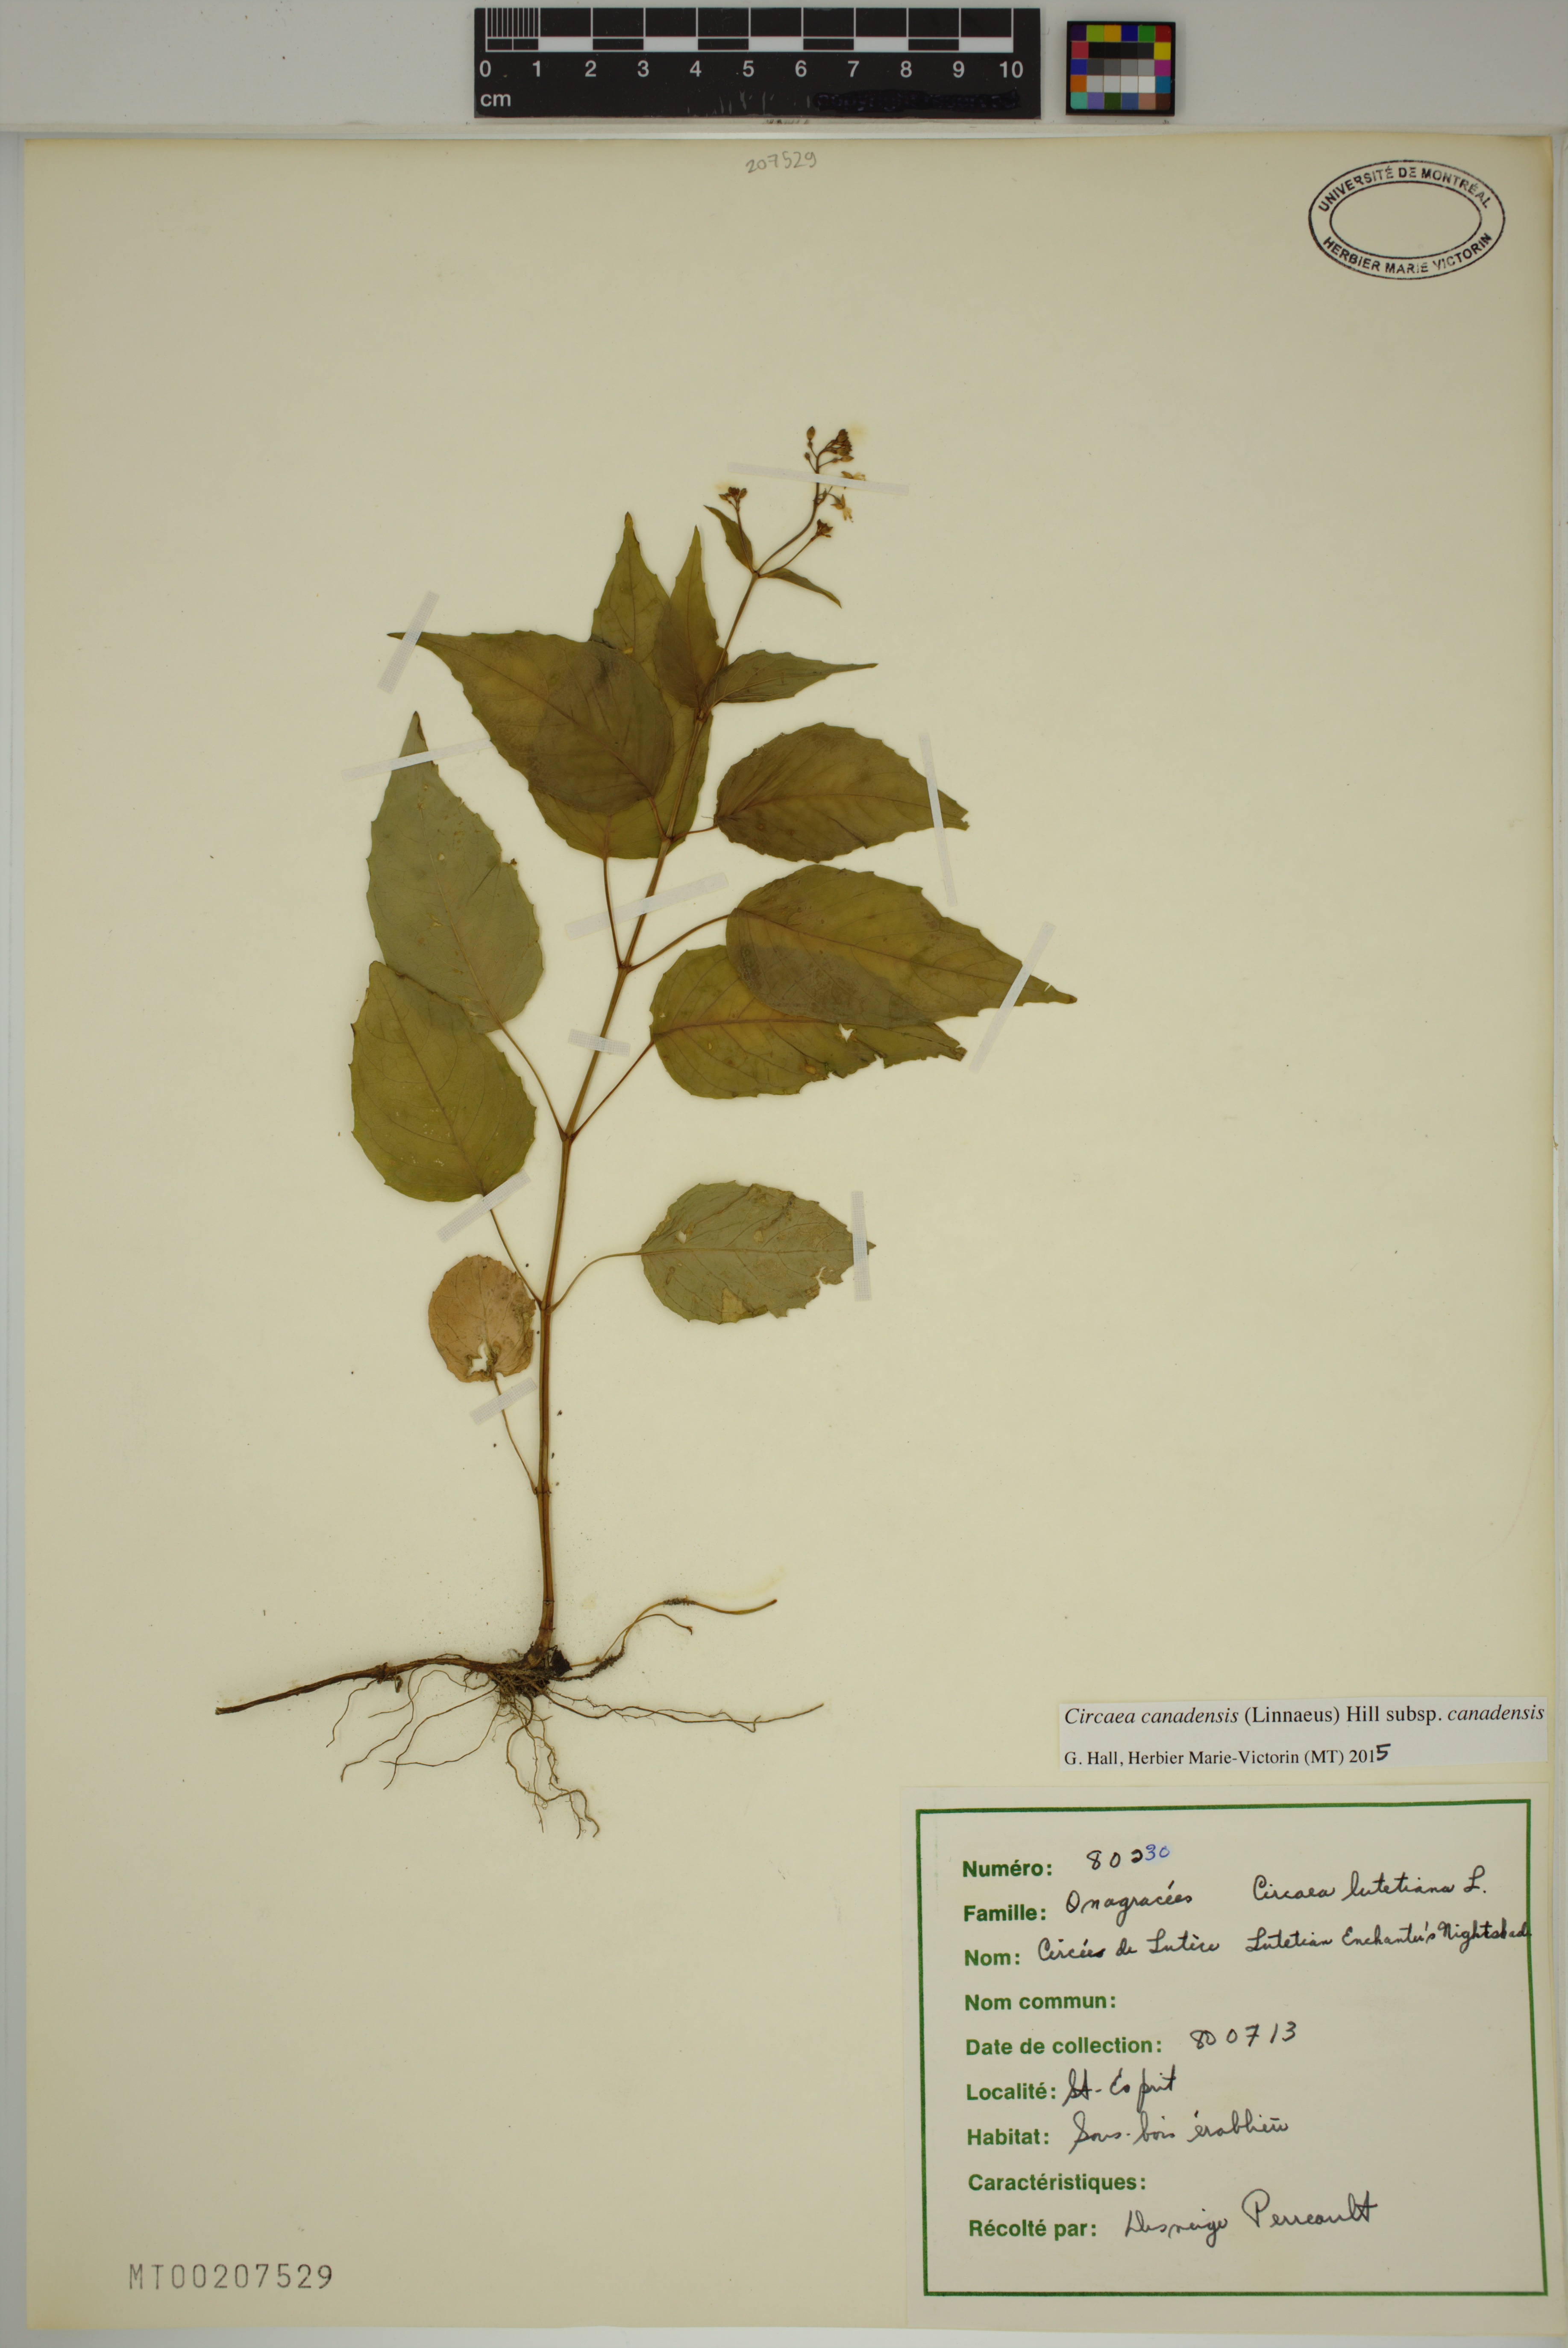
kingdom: Plantae
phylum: Tracheophyta
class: Magnoliopsida
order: Myrtales
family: Onagraceae
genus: Circaea
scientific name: Circaea canadensis
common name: Broad-leaved enchanter's nightshade
